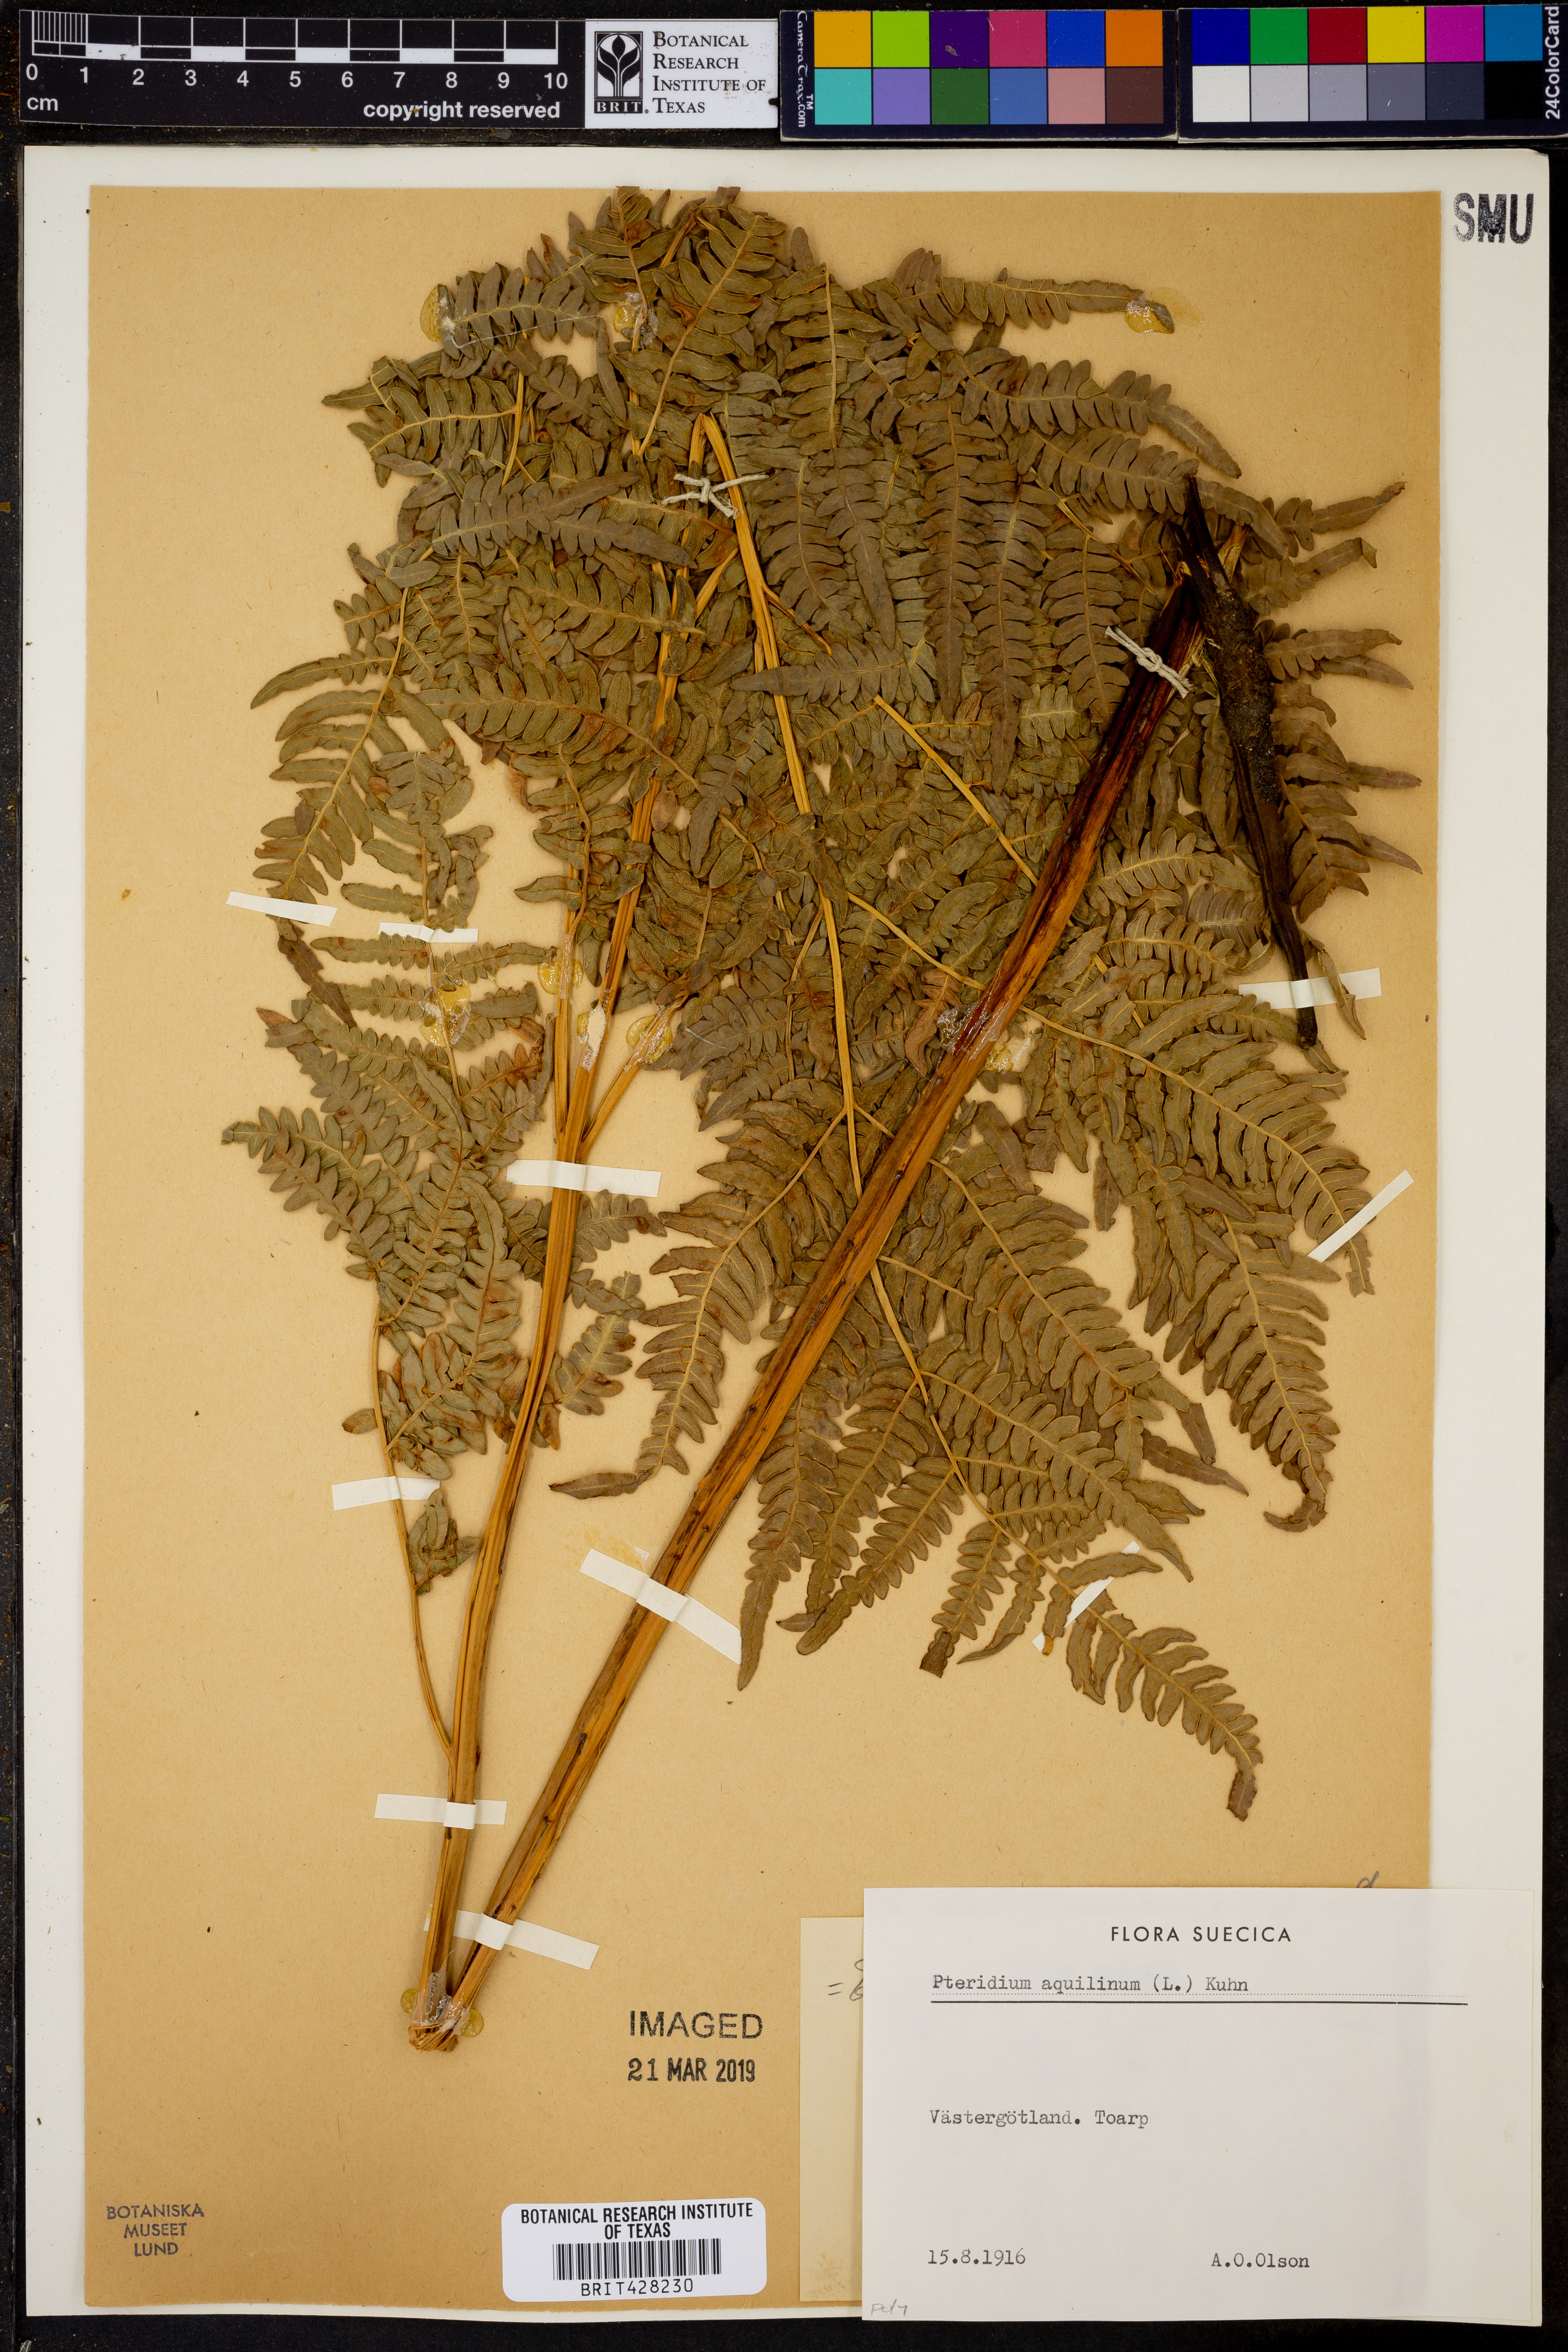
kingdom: Plantae
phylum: Tracheophyta
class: Polypodiopsida
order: Polypodiales
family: Dennstaedtiaceae
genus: Pteridium
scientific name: Pteridium aquilinum
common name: Bracken
